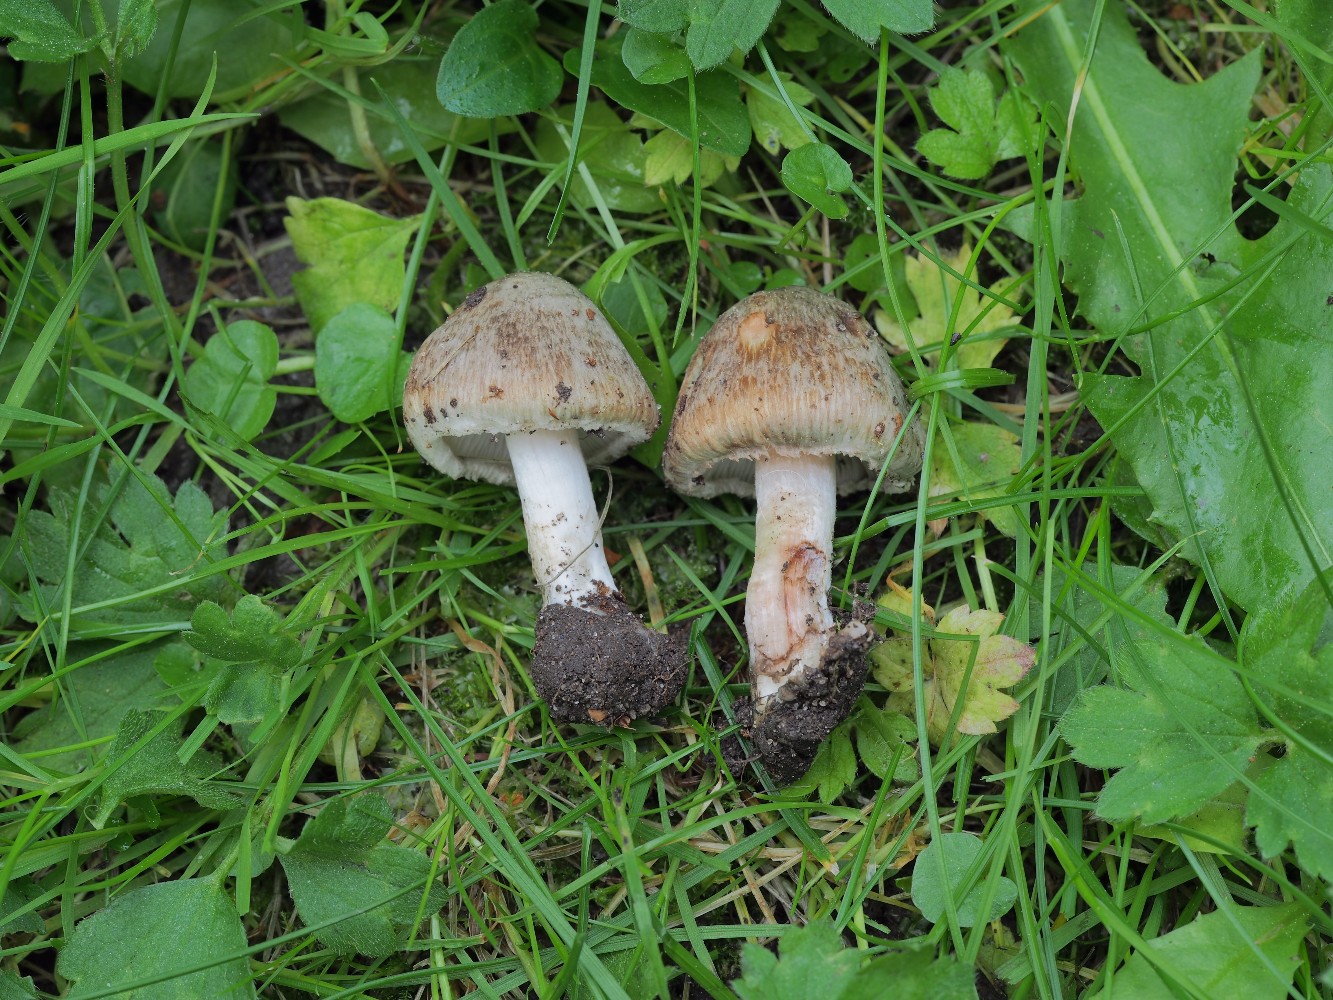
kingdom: Fungi
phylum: Basidiomycota
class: Agaricomycetes
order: Agaricales
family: Inocybaceae
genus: Inocybe
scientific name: Inocybe haemacta
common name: blågrøn trævlhat
